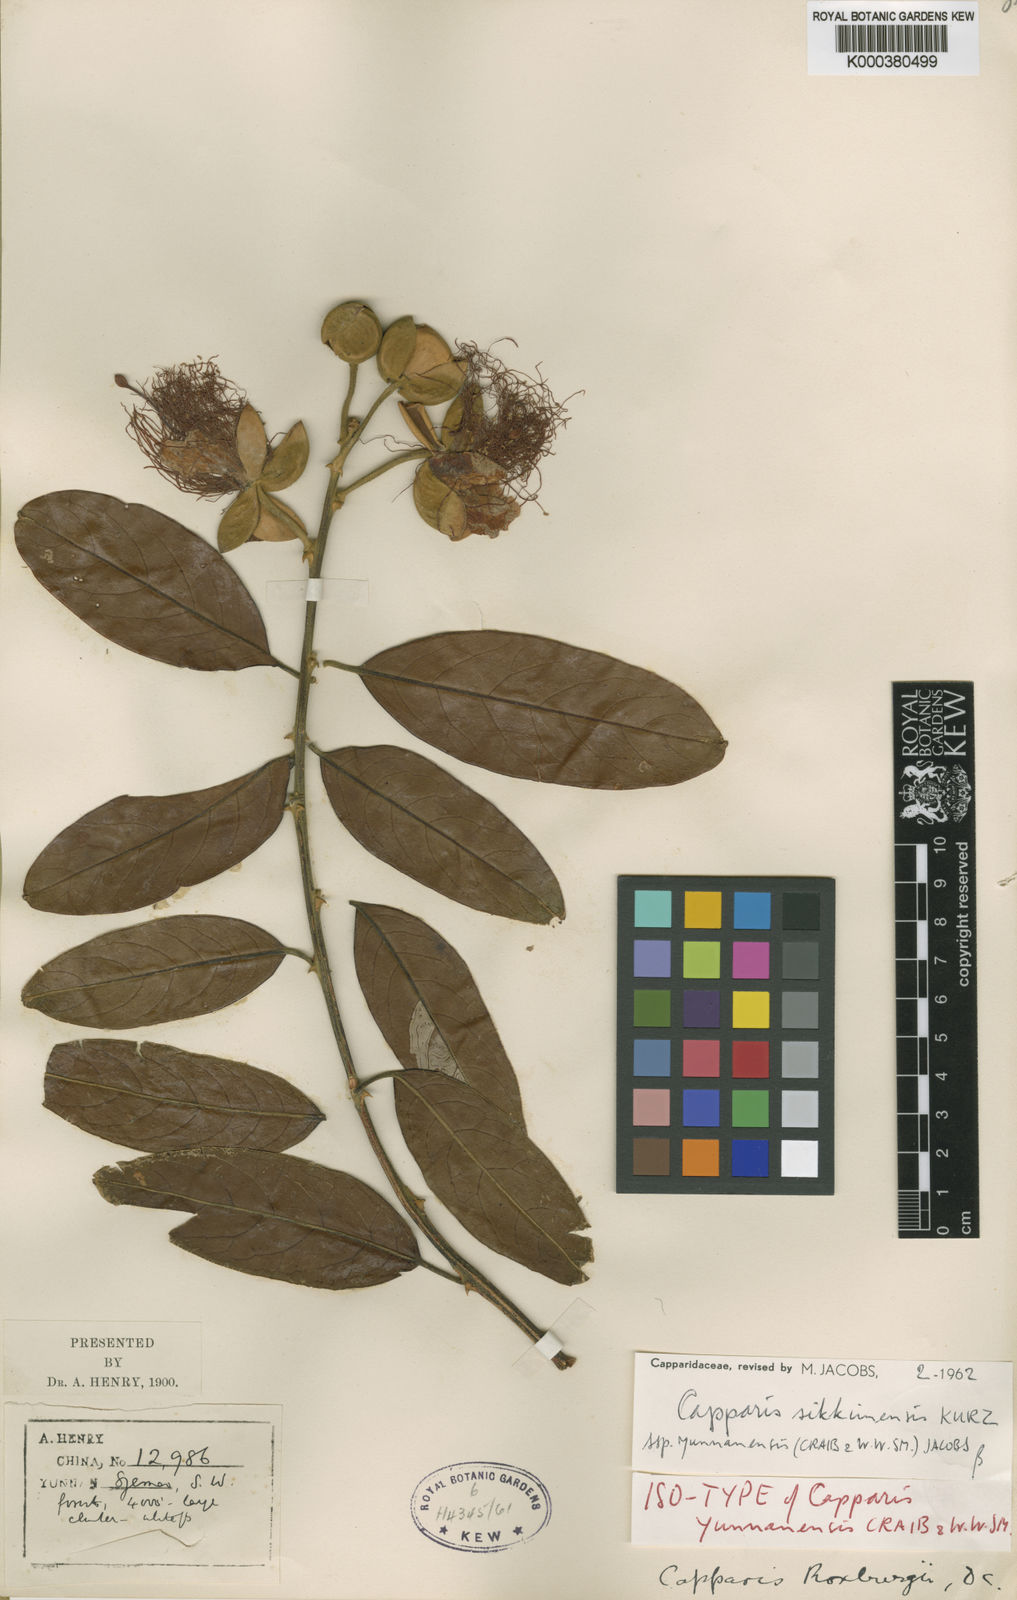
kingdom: Plantae
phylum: Tracheophyta
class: Magnoliopsida
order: Brassicales
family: Capparaceae
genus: Capparis
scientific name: Capparis yunnanensis
